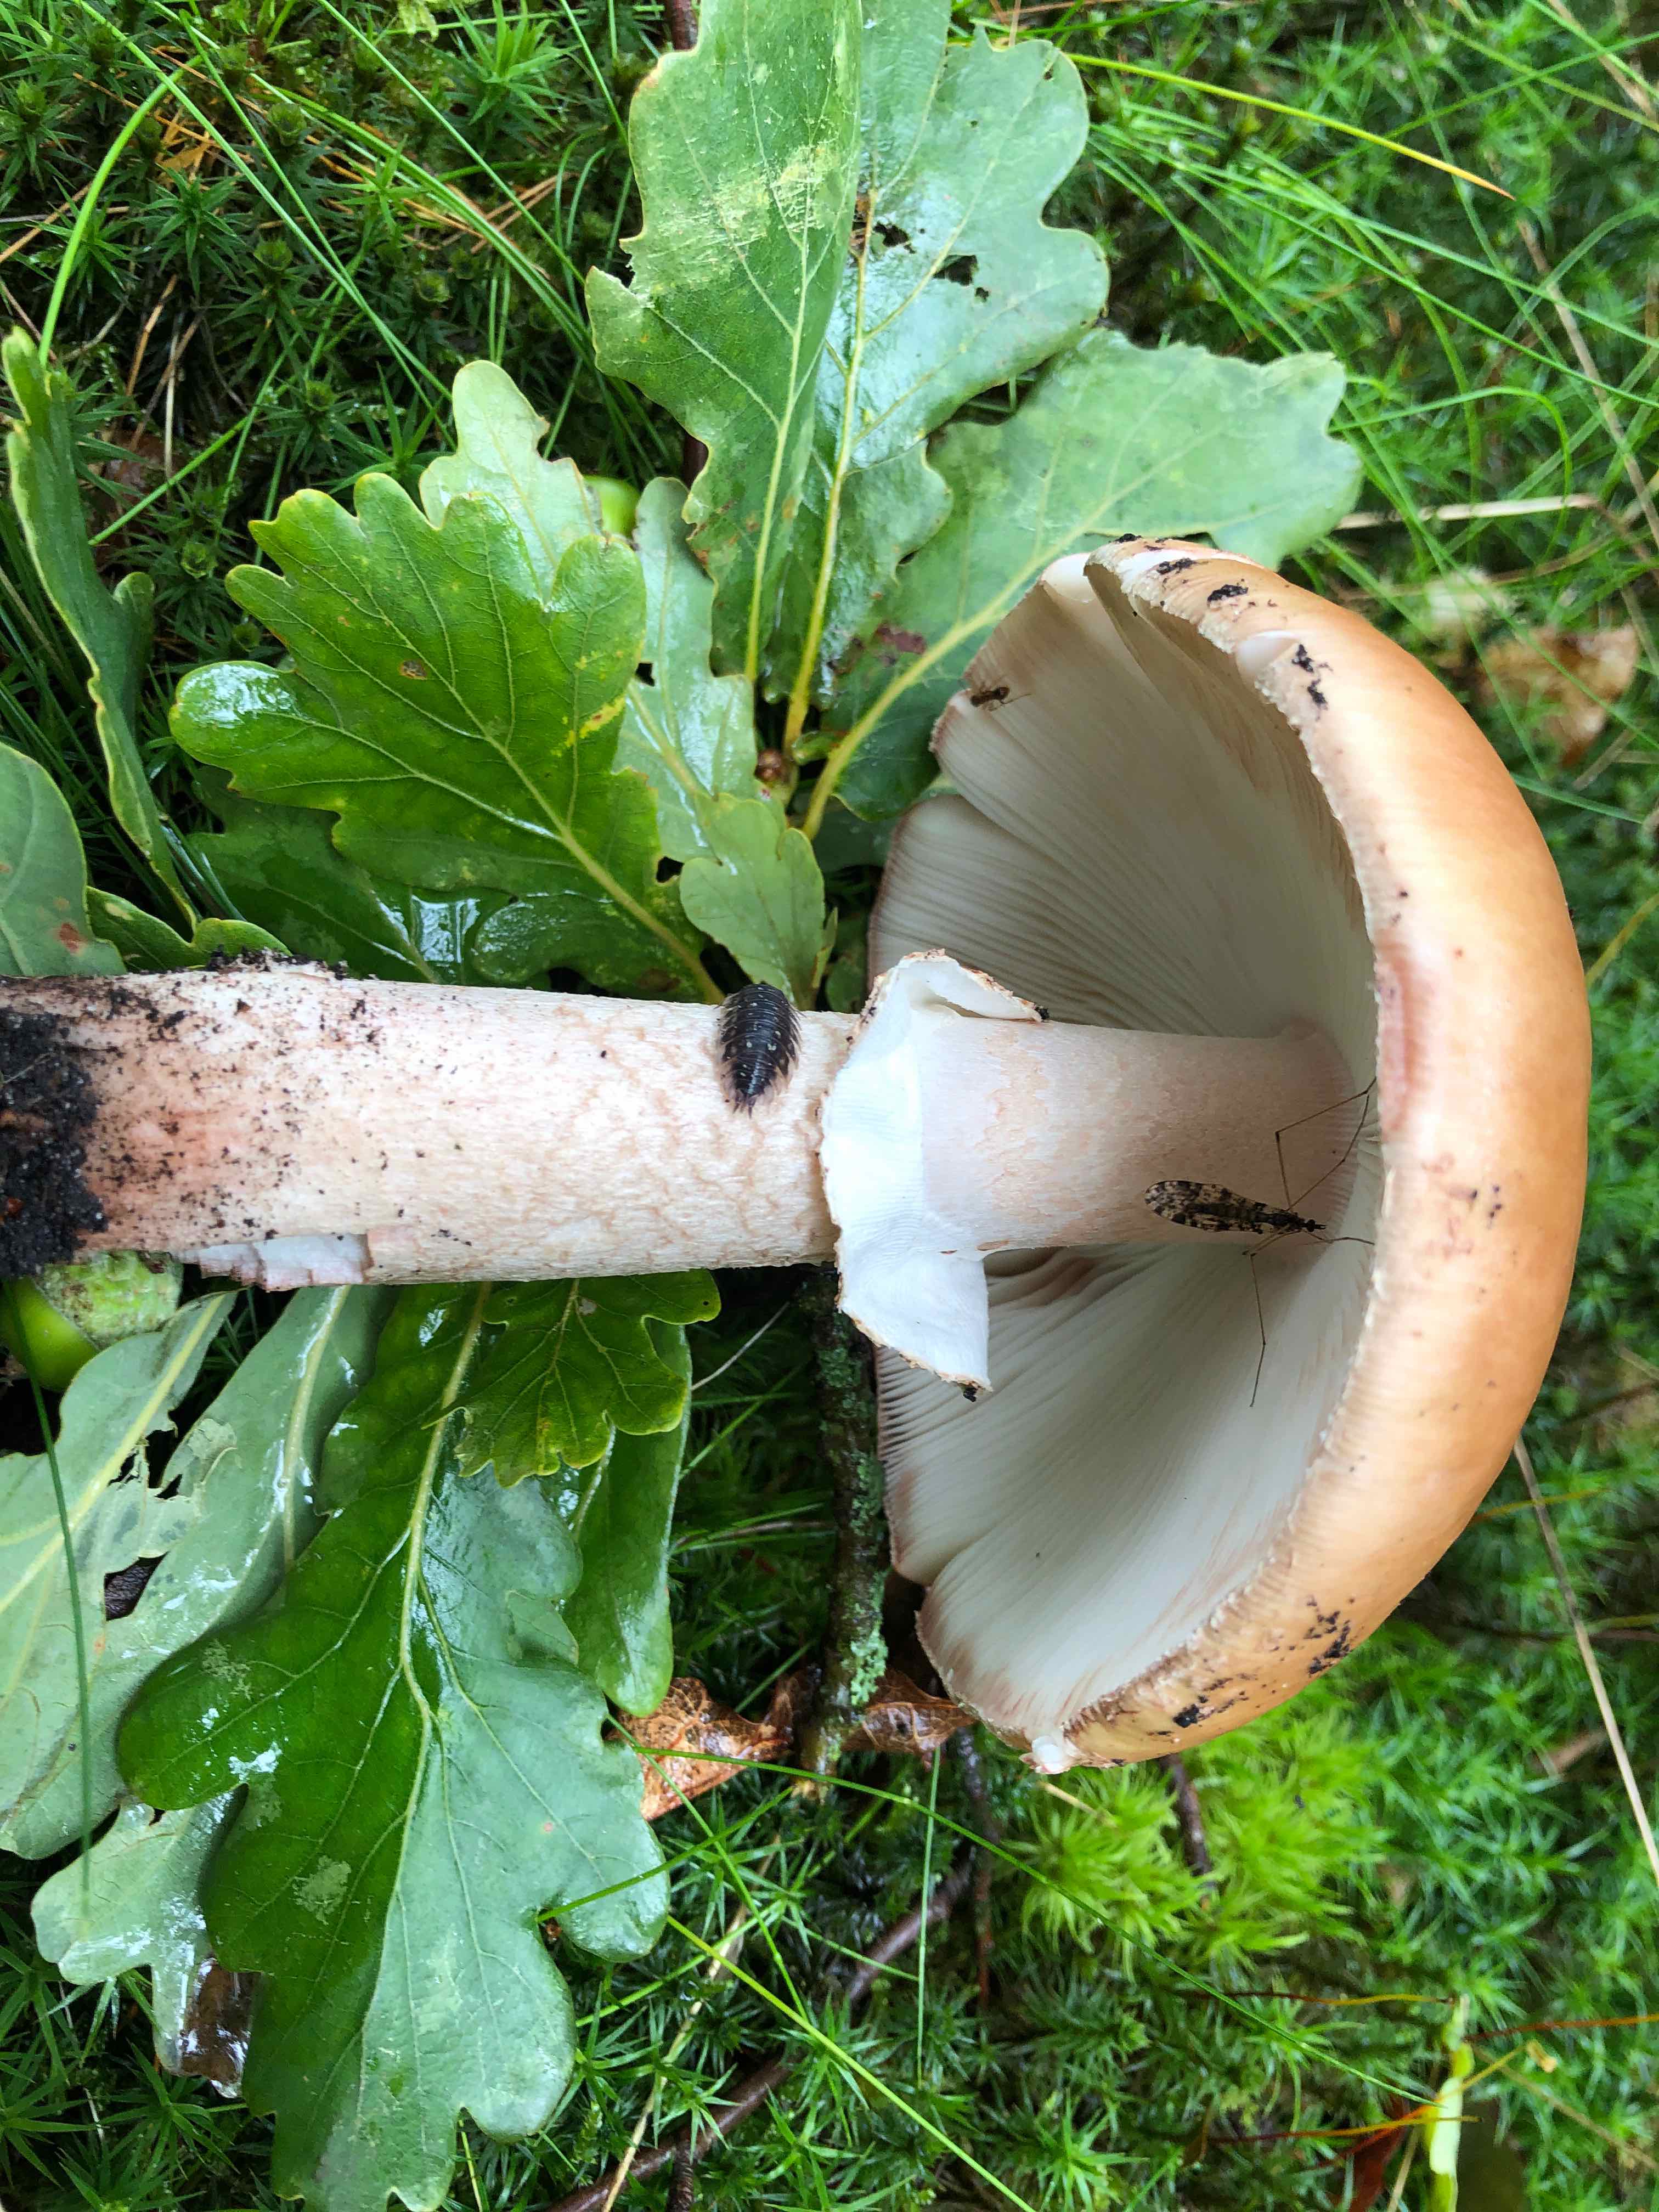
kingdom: Fungi
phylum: Basidiomycota
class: Agaricomycetes
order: Agaricales
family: Amanitaceae
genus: Amanita
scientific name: Amanita rubescens
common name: rødmende fluesvamp
